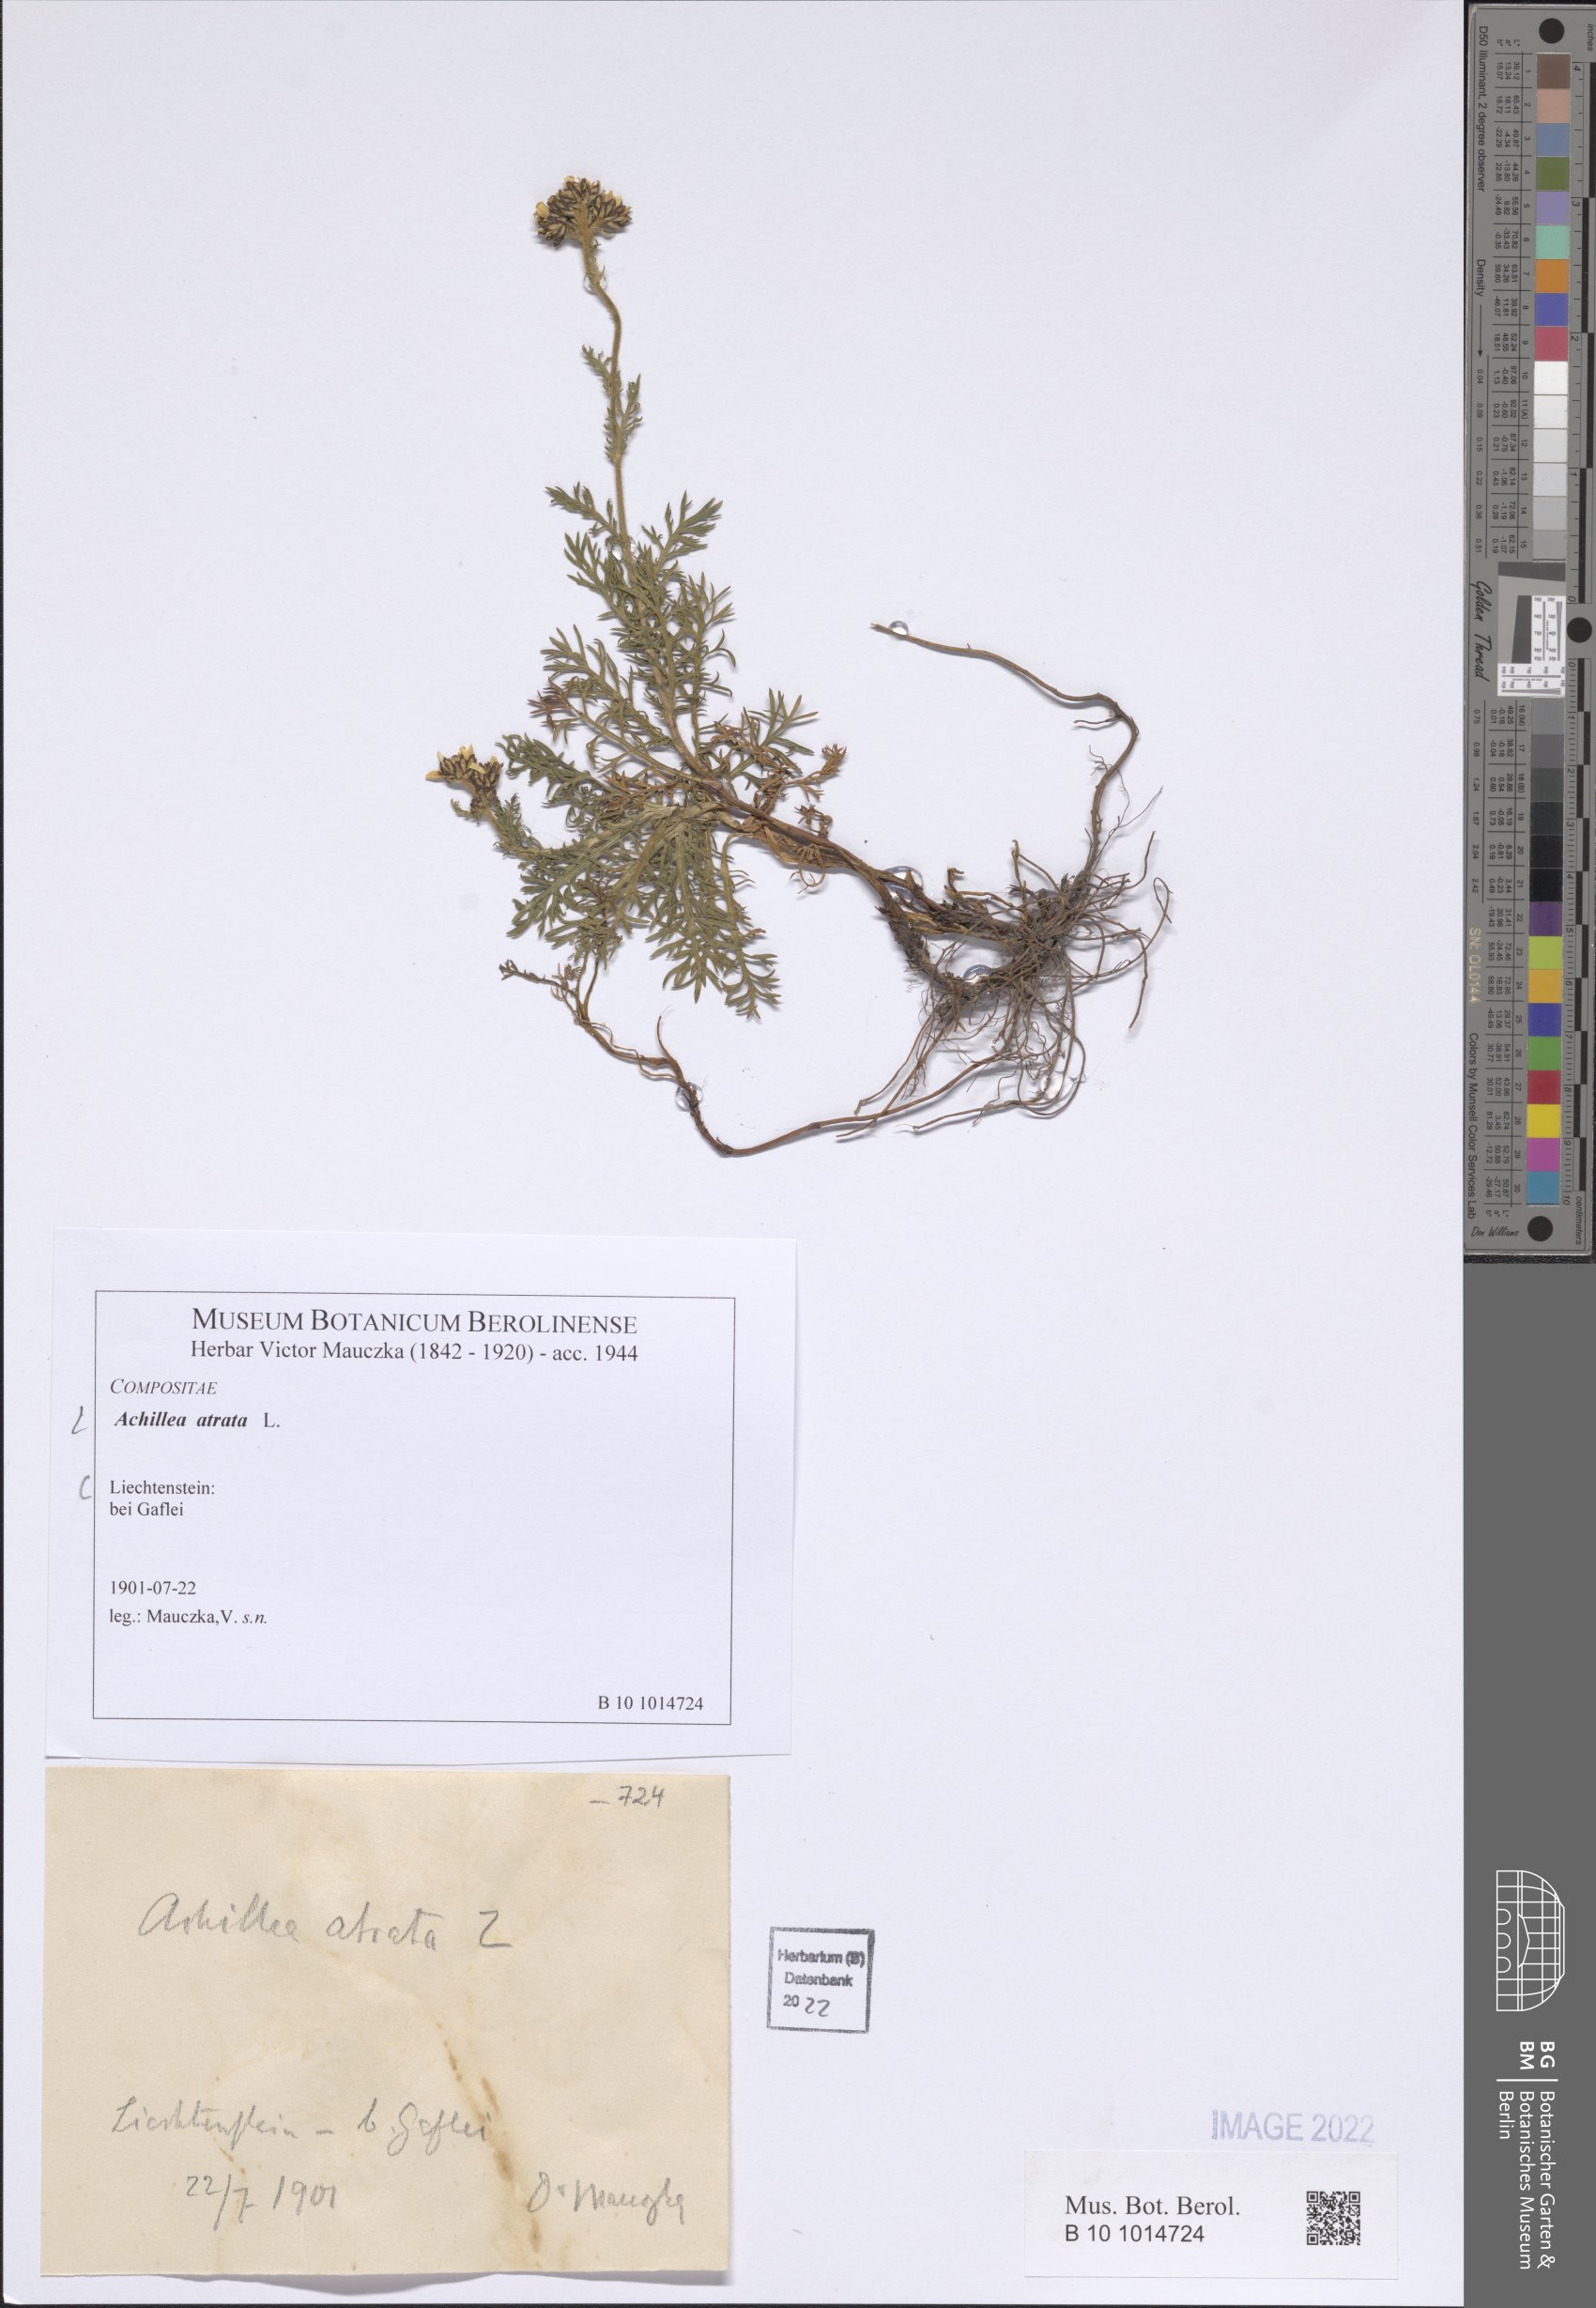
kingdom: Plantae
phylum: Tracheophyta
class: Magnoliopsida
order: Asterales
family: Asteraceae
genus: Achillea
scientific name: Achillea atrata
